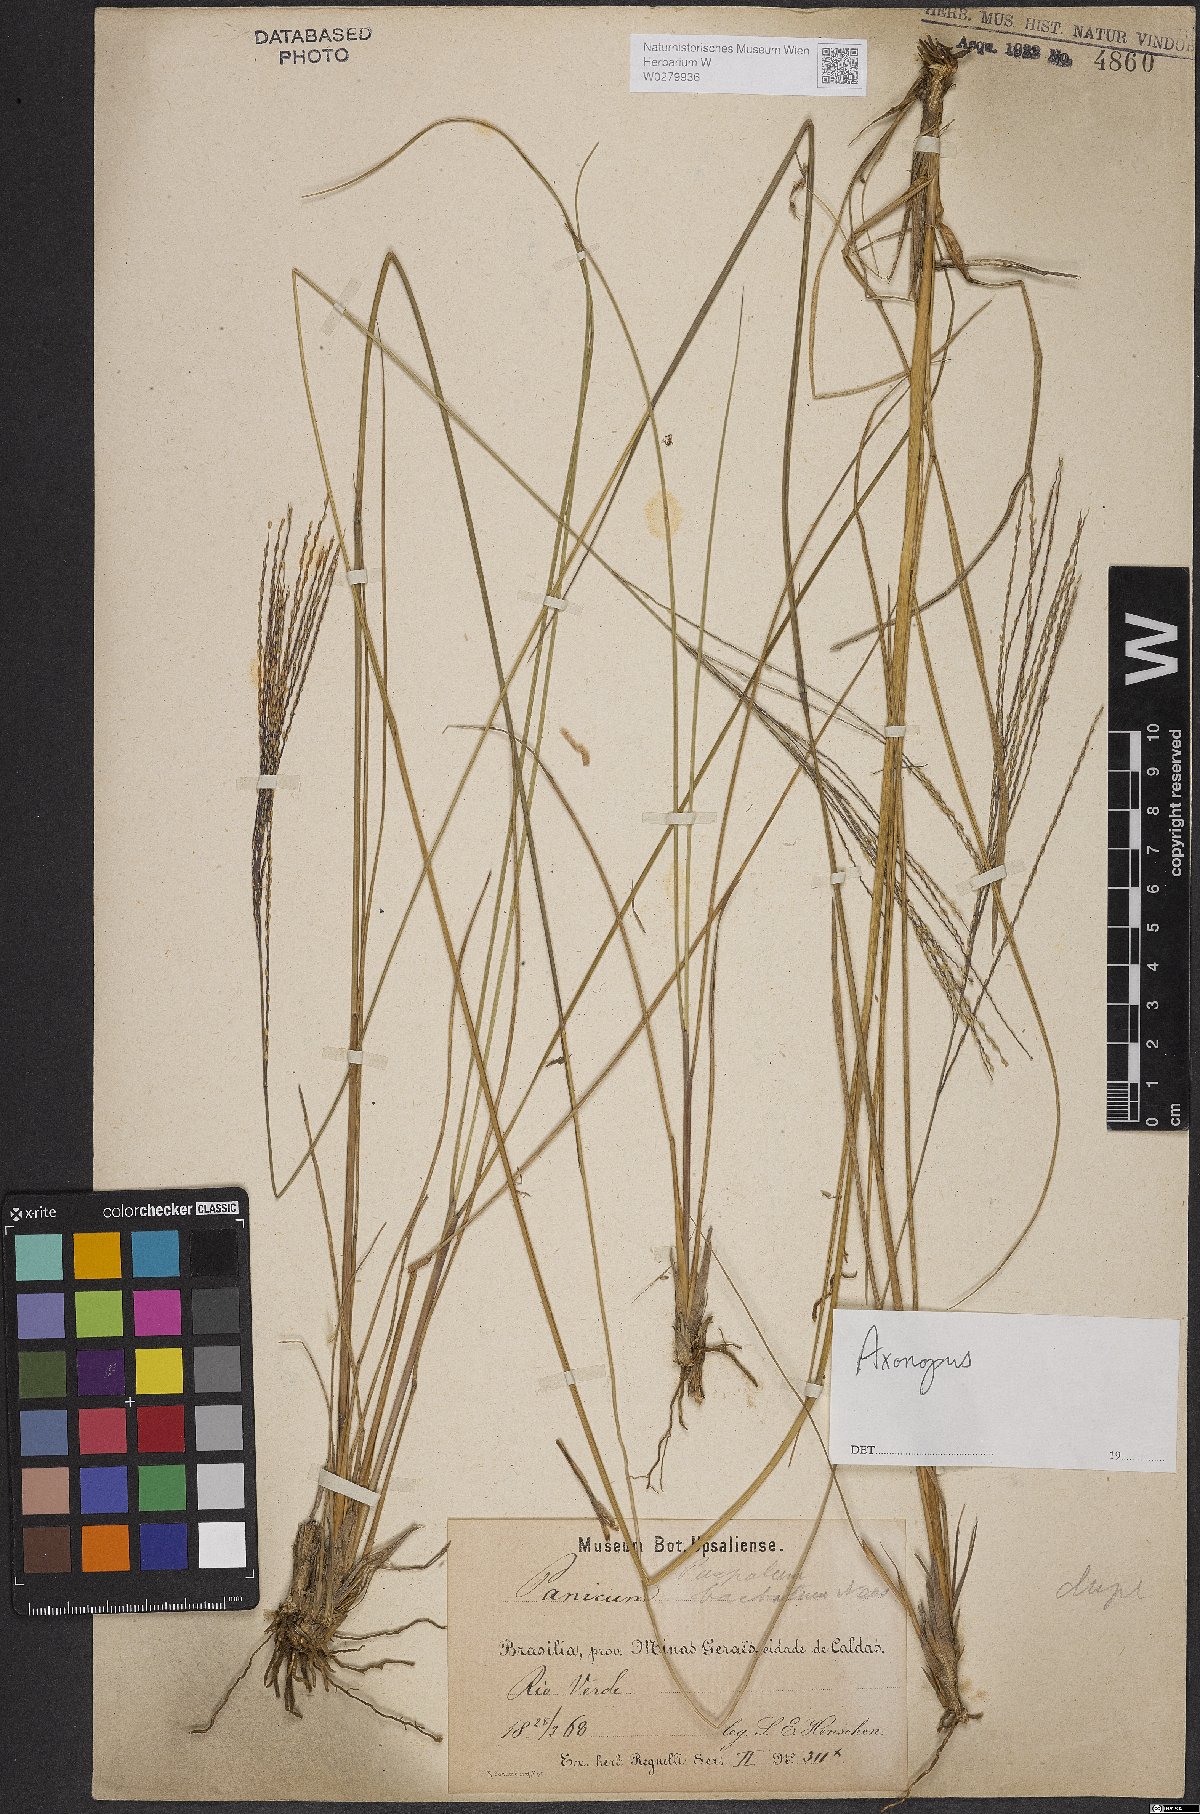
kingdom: Plantae
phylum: Tracheophyta
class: Liliopsida
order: Poales
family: Poaceae
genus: Axonopus
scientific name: Axonopus
